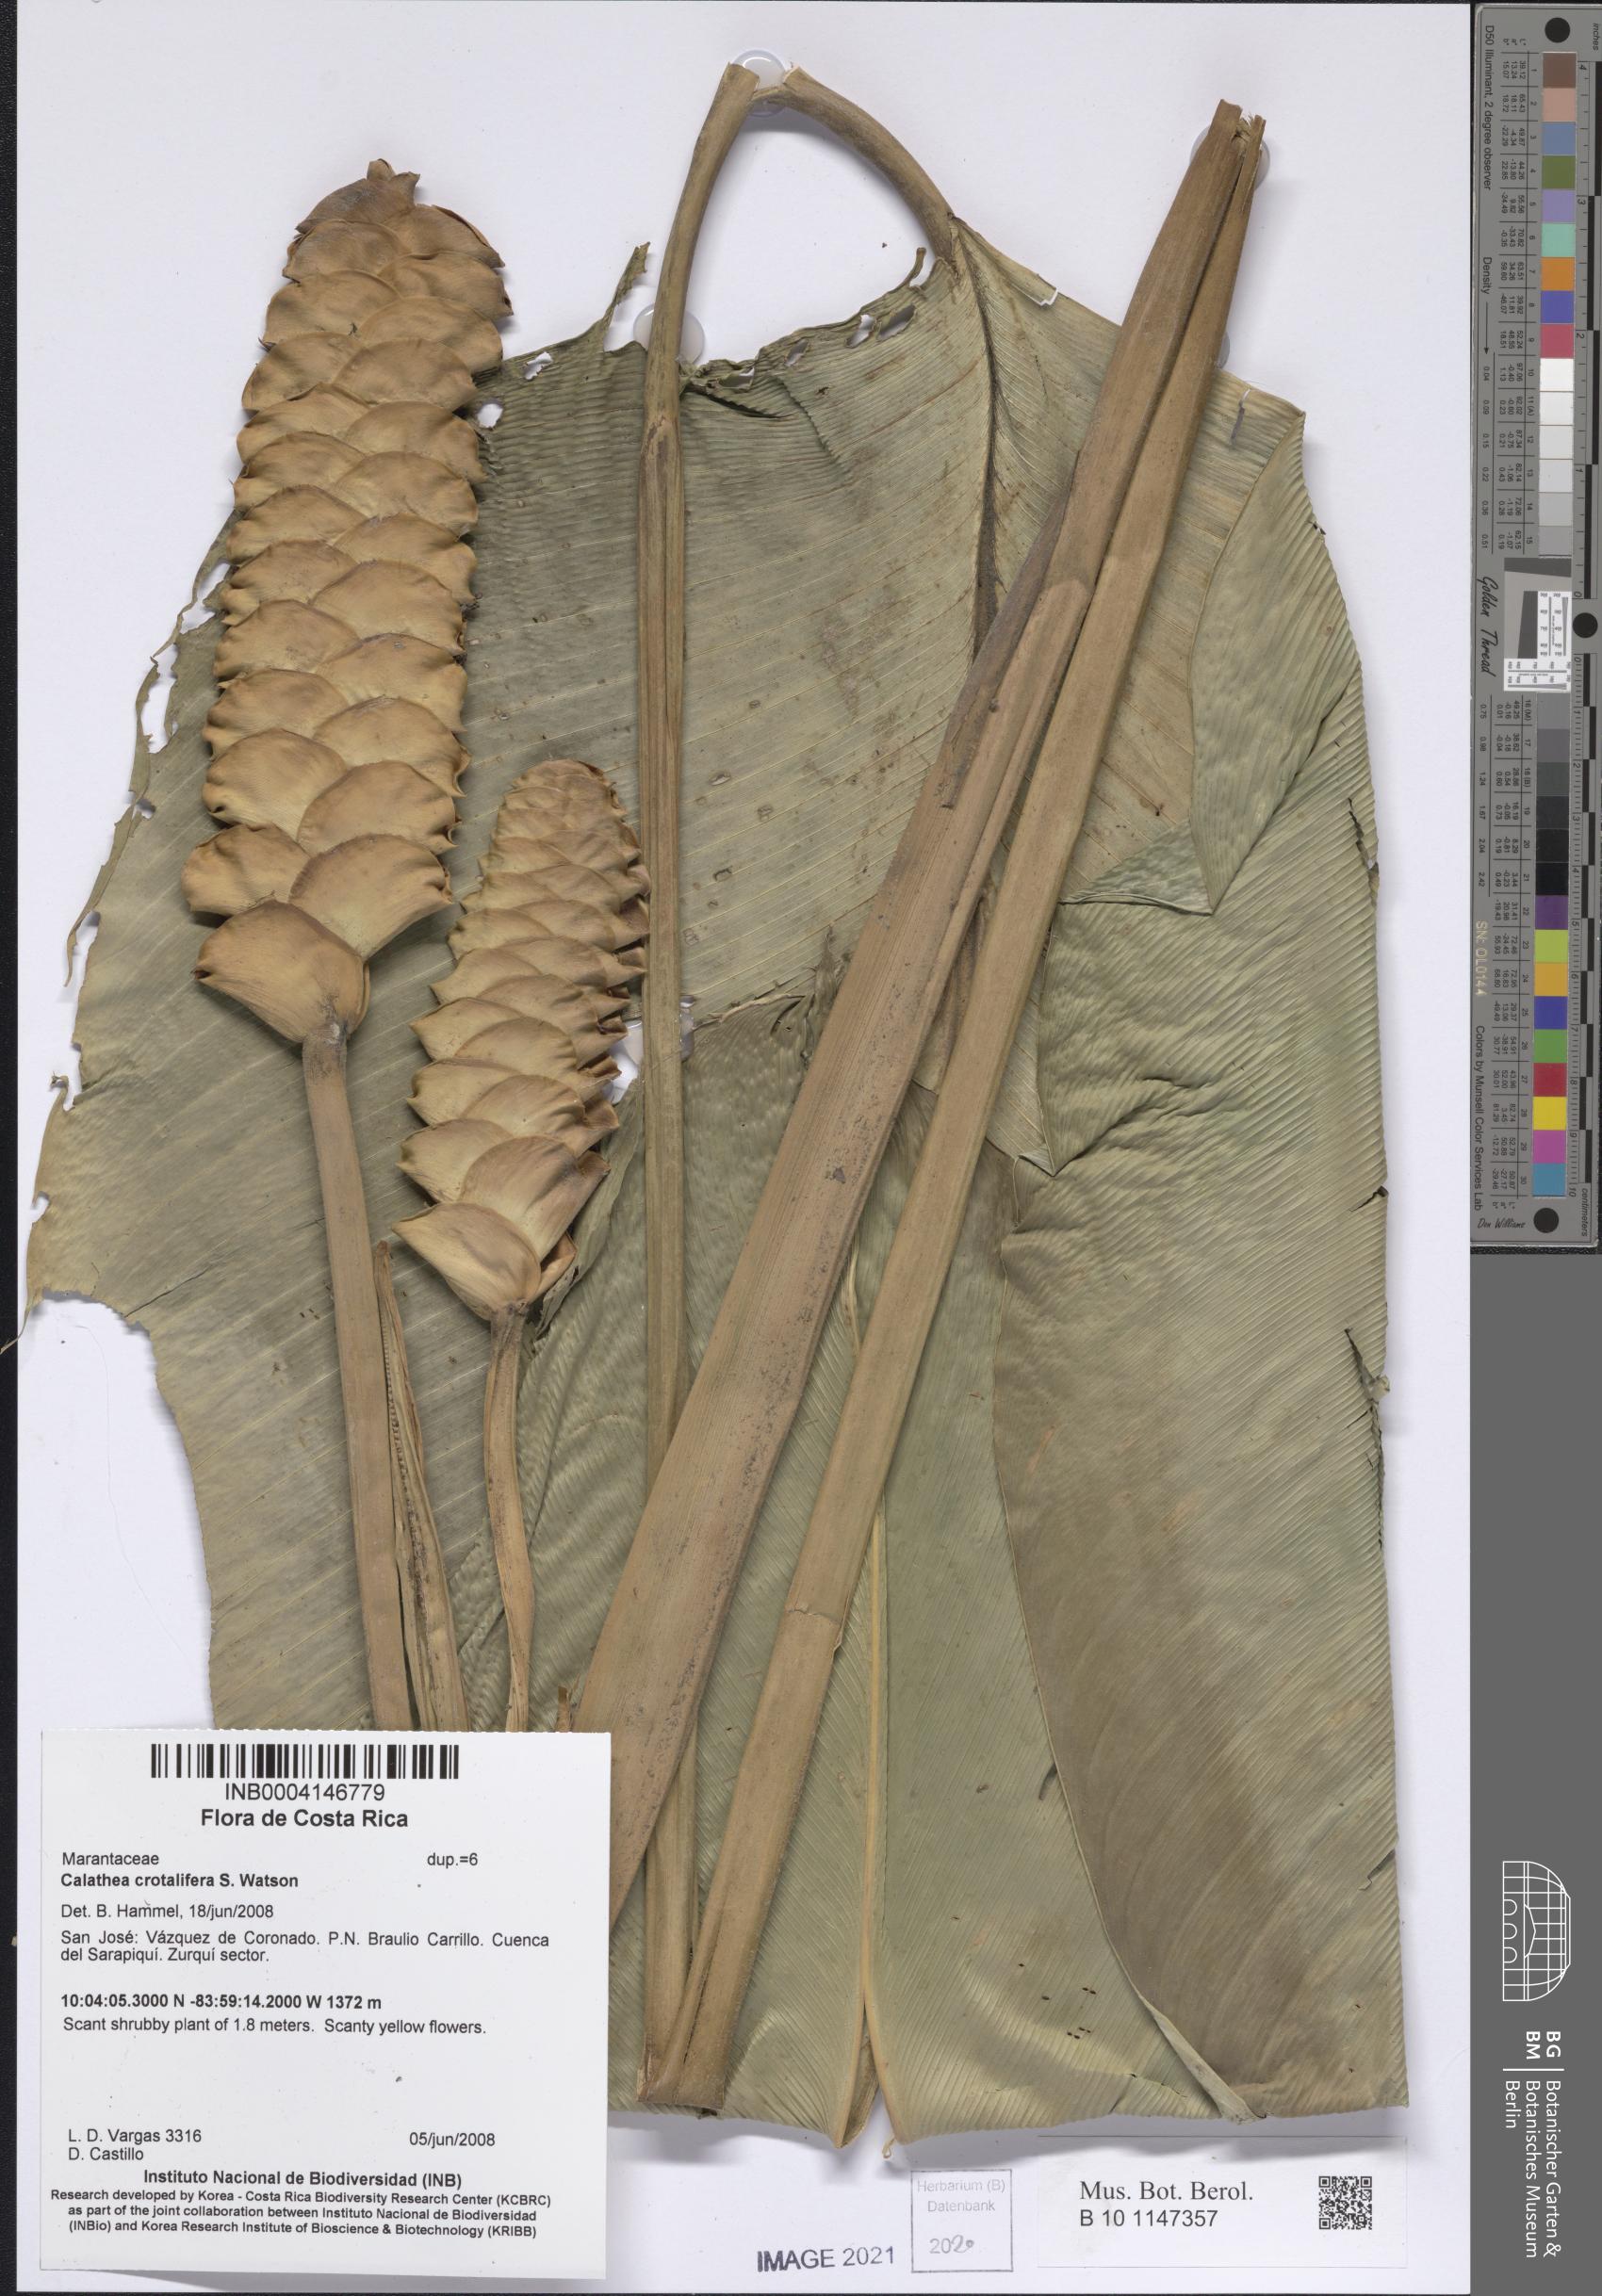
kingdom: Plantae
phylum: Tracheophyta
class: Liliopsida
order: Zingiberales
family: Marantaceae
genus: Calathea
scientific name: Calathea crotalifera
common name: Rattlesnake plant
